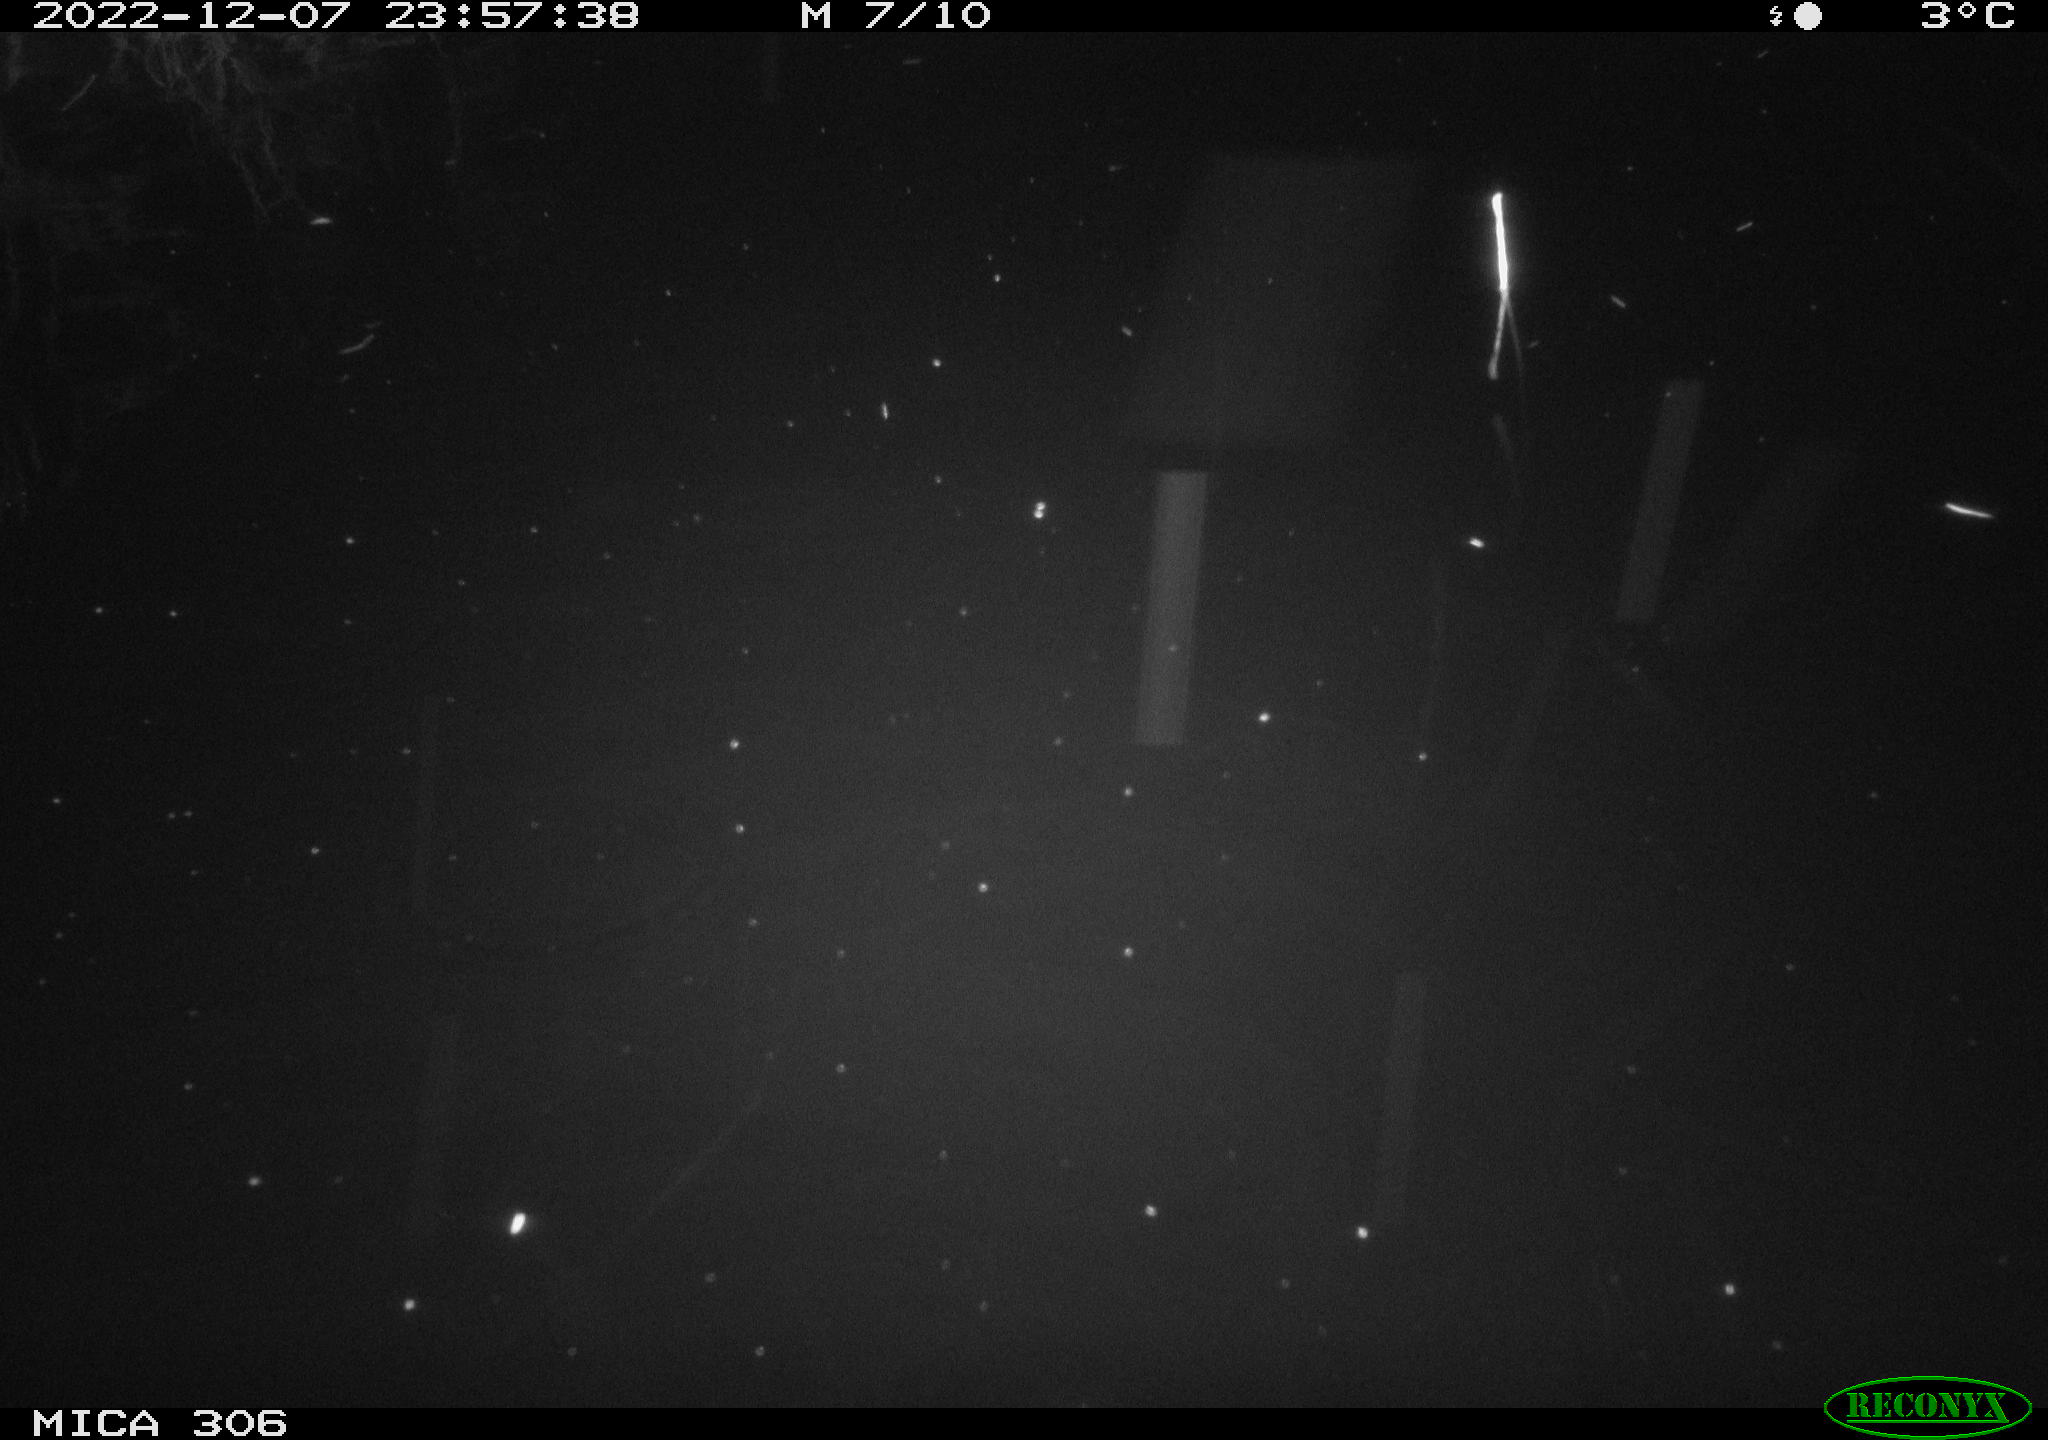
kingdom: Animalia
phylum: Chordata
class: Mammalia
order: Rodentia
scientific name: Rodentia
